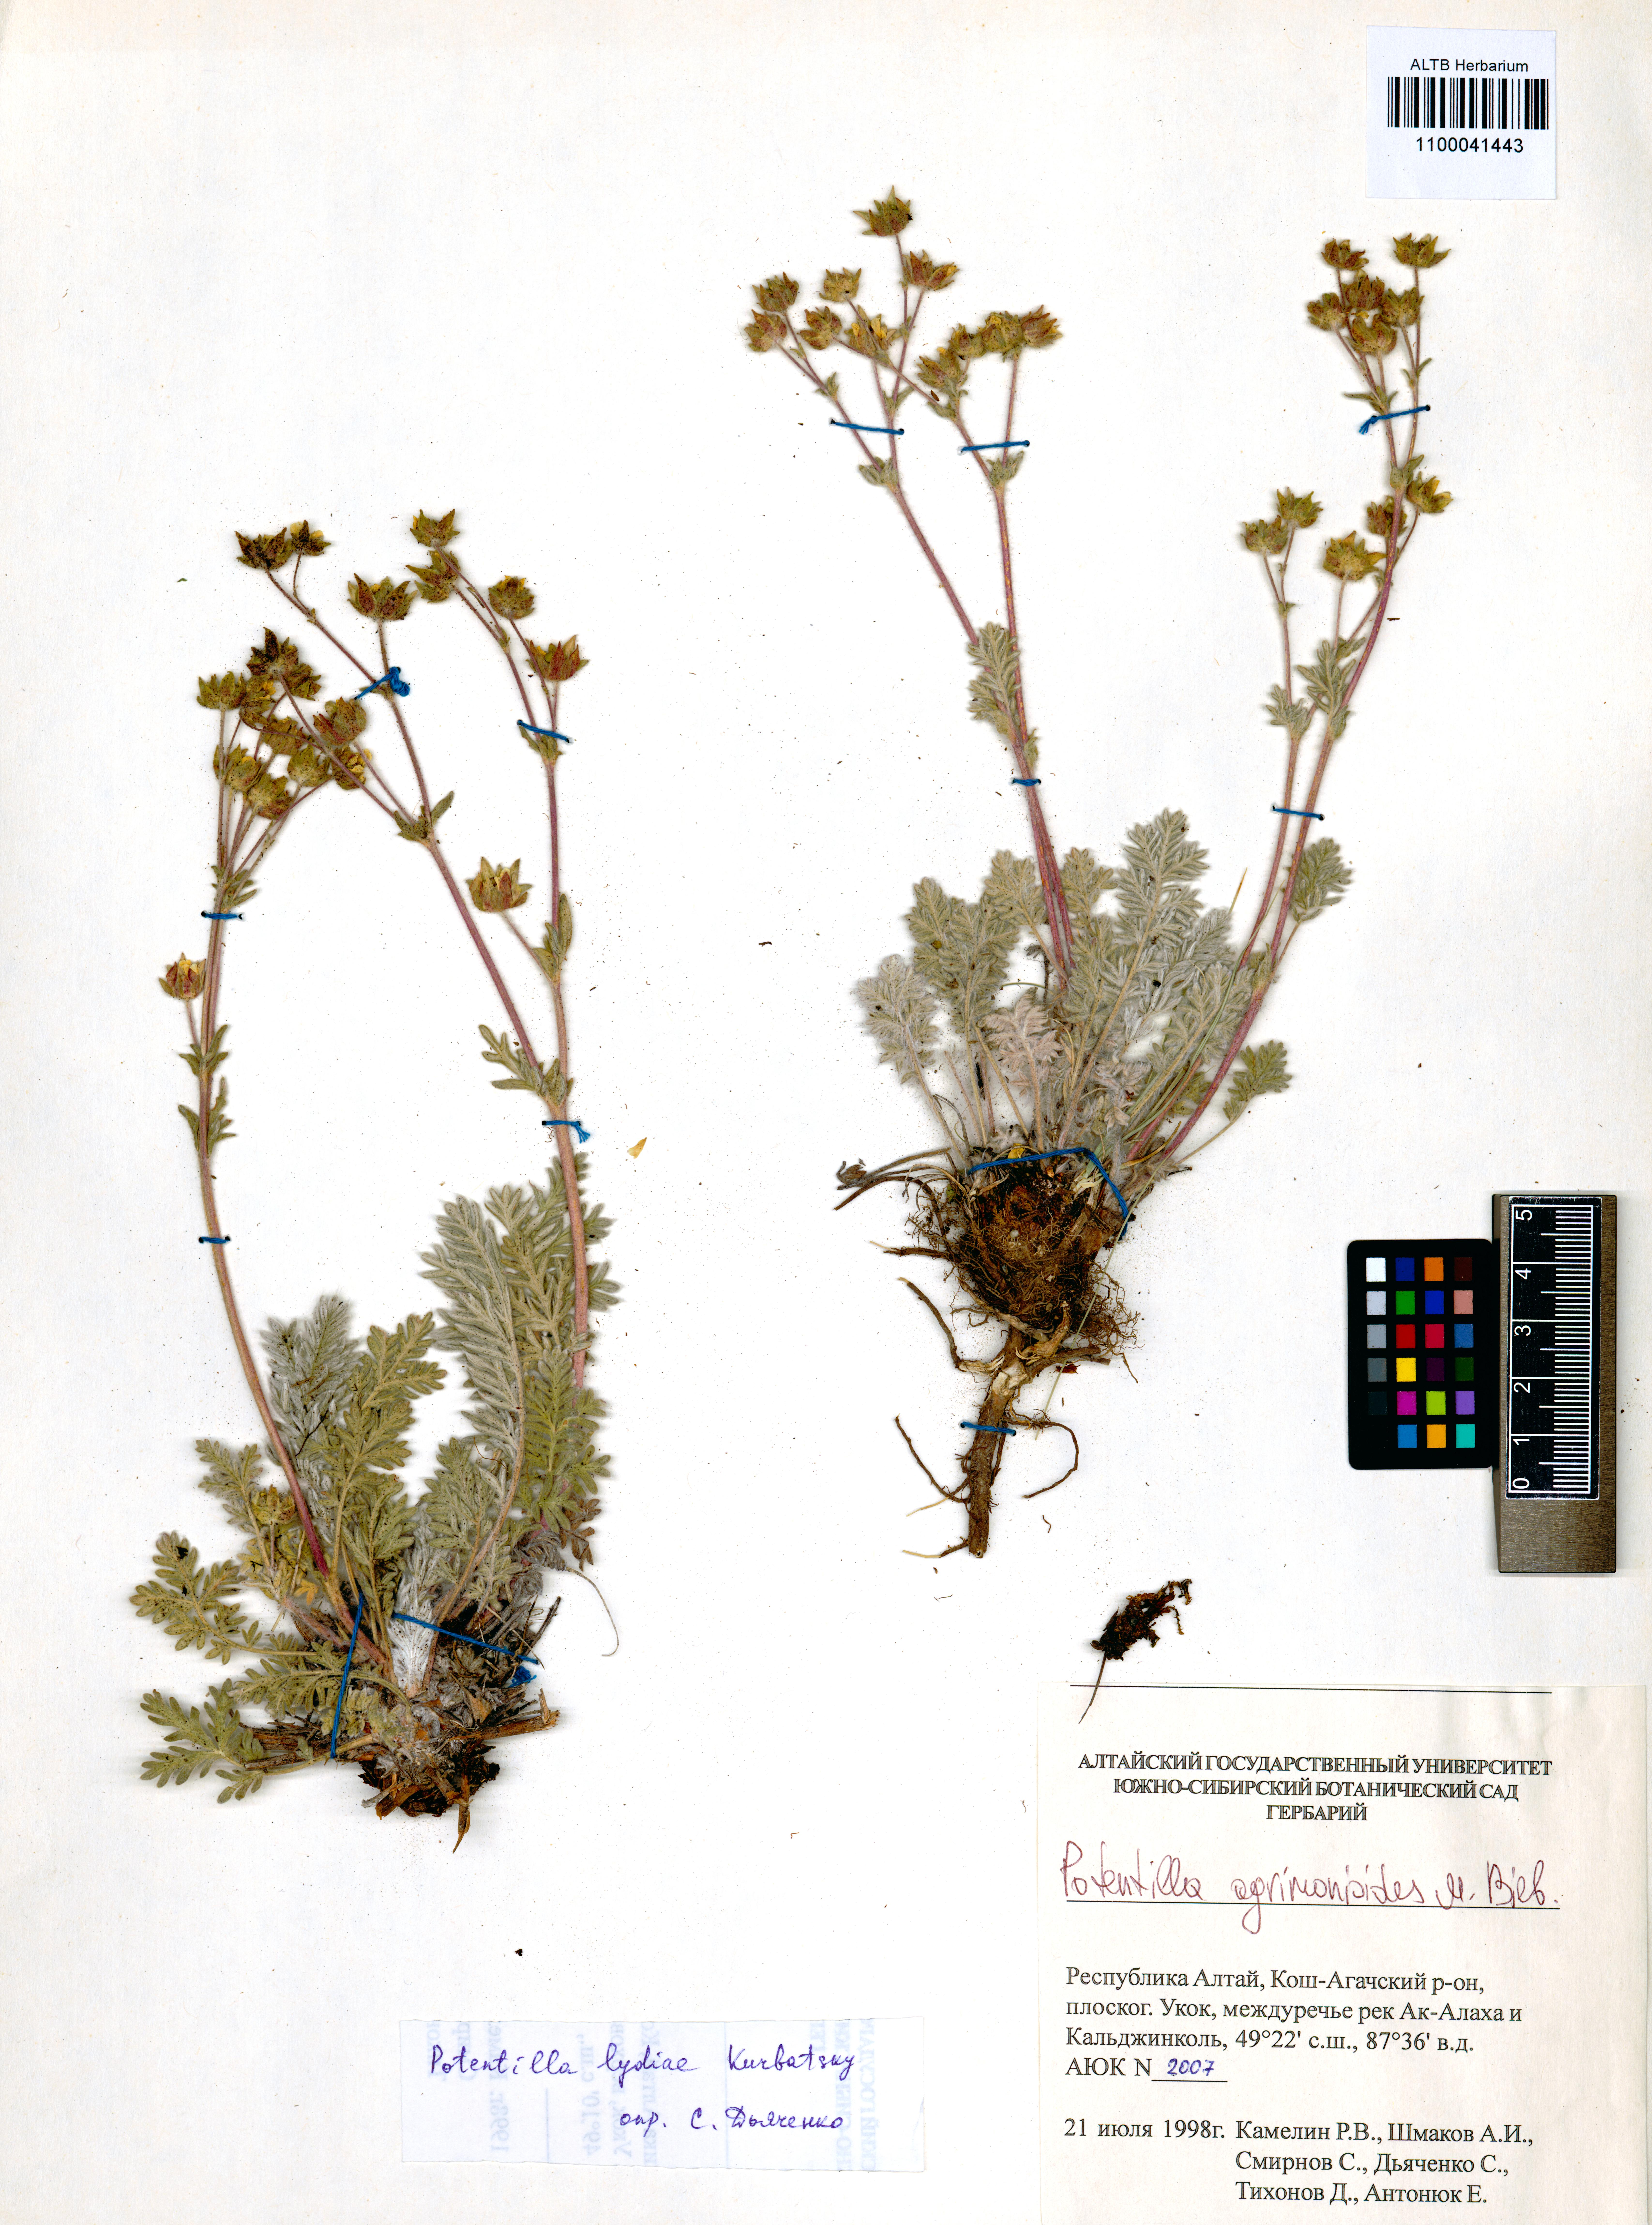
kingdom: Plantae
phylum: Tracheophyta
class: Magnoliopsida
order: Rosales
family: Rosaceae
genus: Potentilla
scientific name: Potentilla agrimonioides
